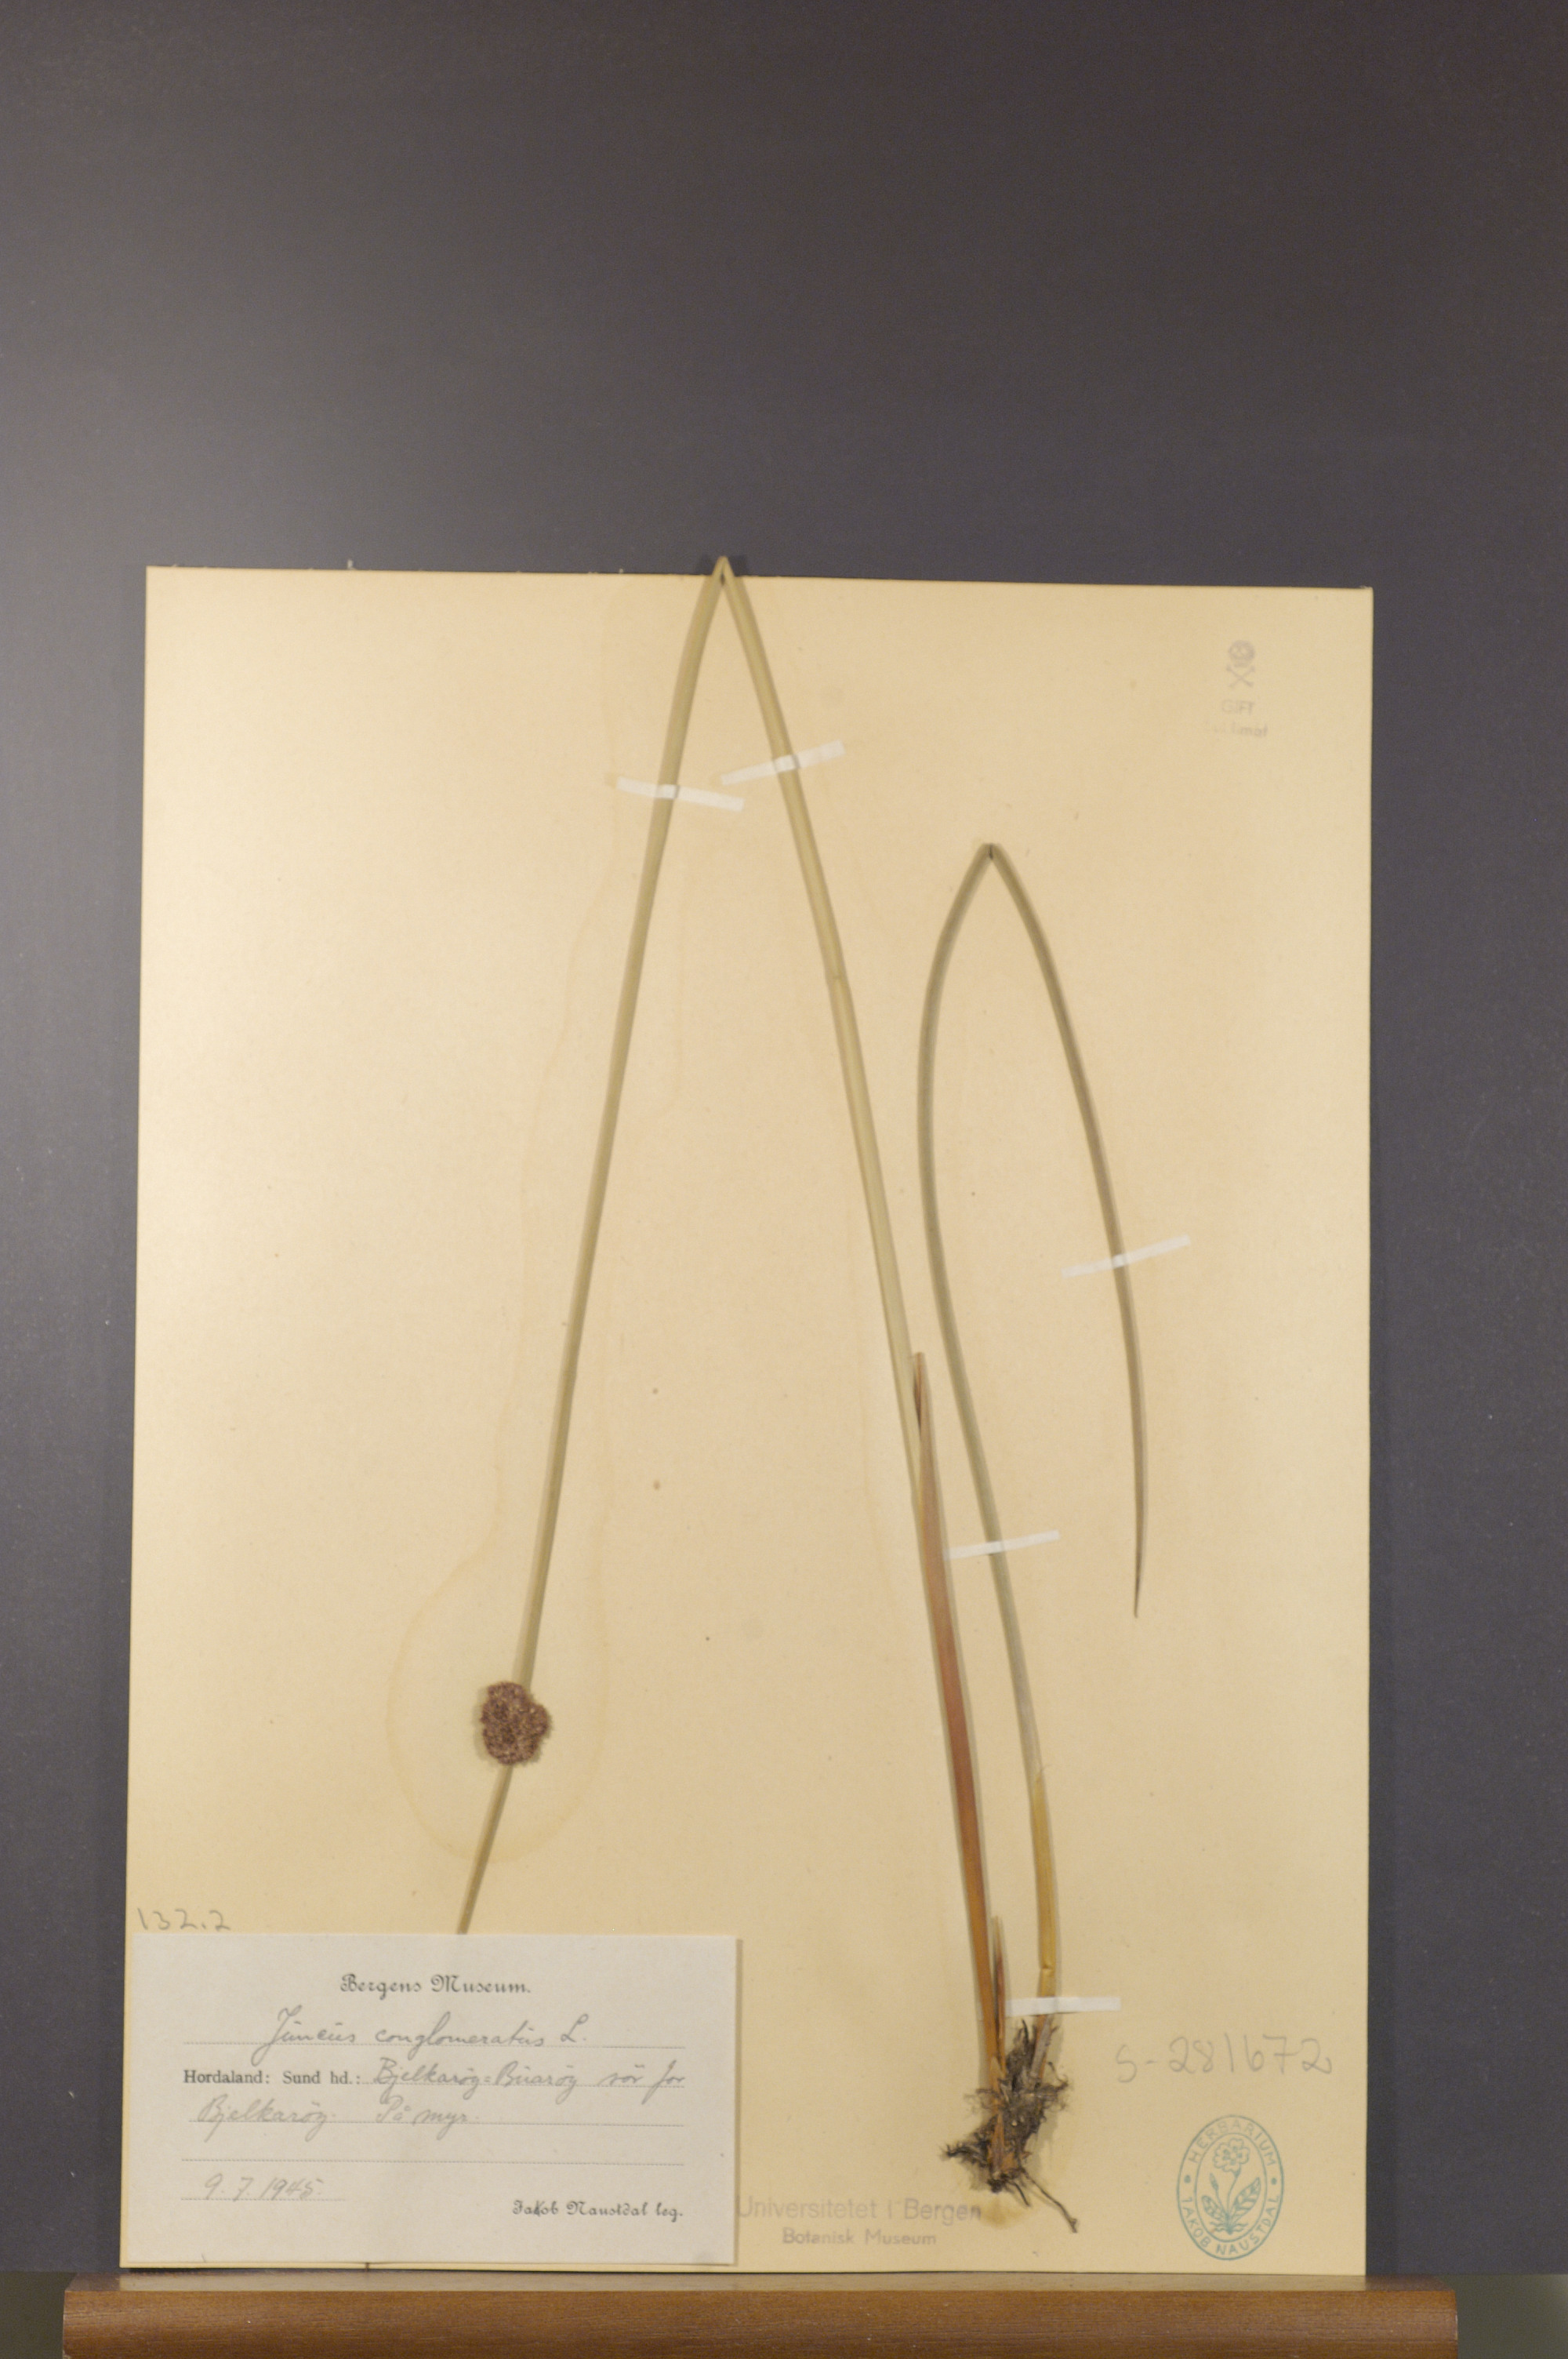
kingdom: Plantae
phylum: Tracheophyta
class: Liliopsida
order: Poales
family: Juncaceae
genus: Juncus
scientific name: Juncus conglomeratus
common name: Compact rush
